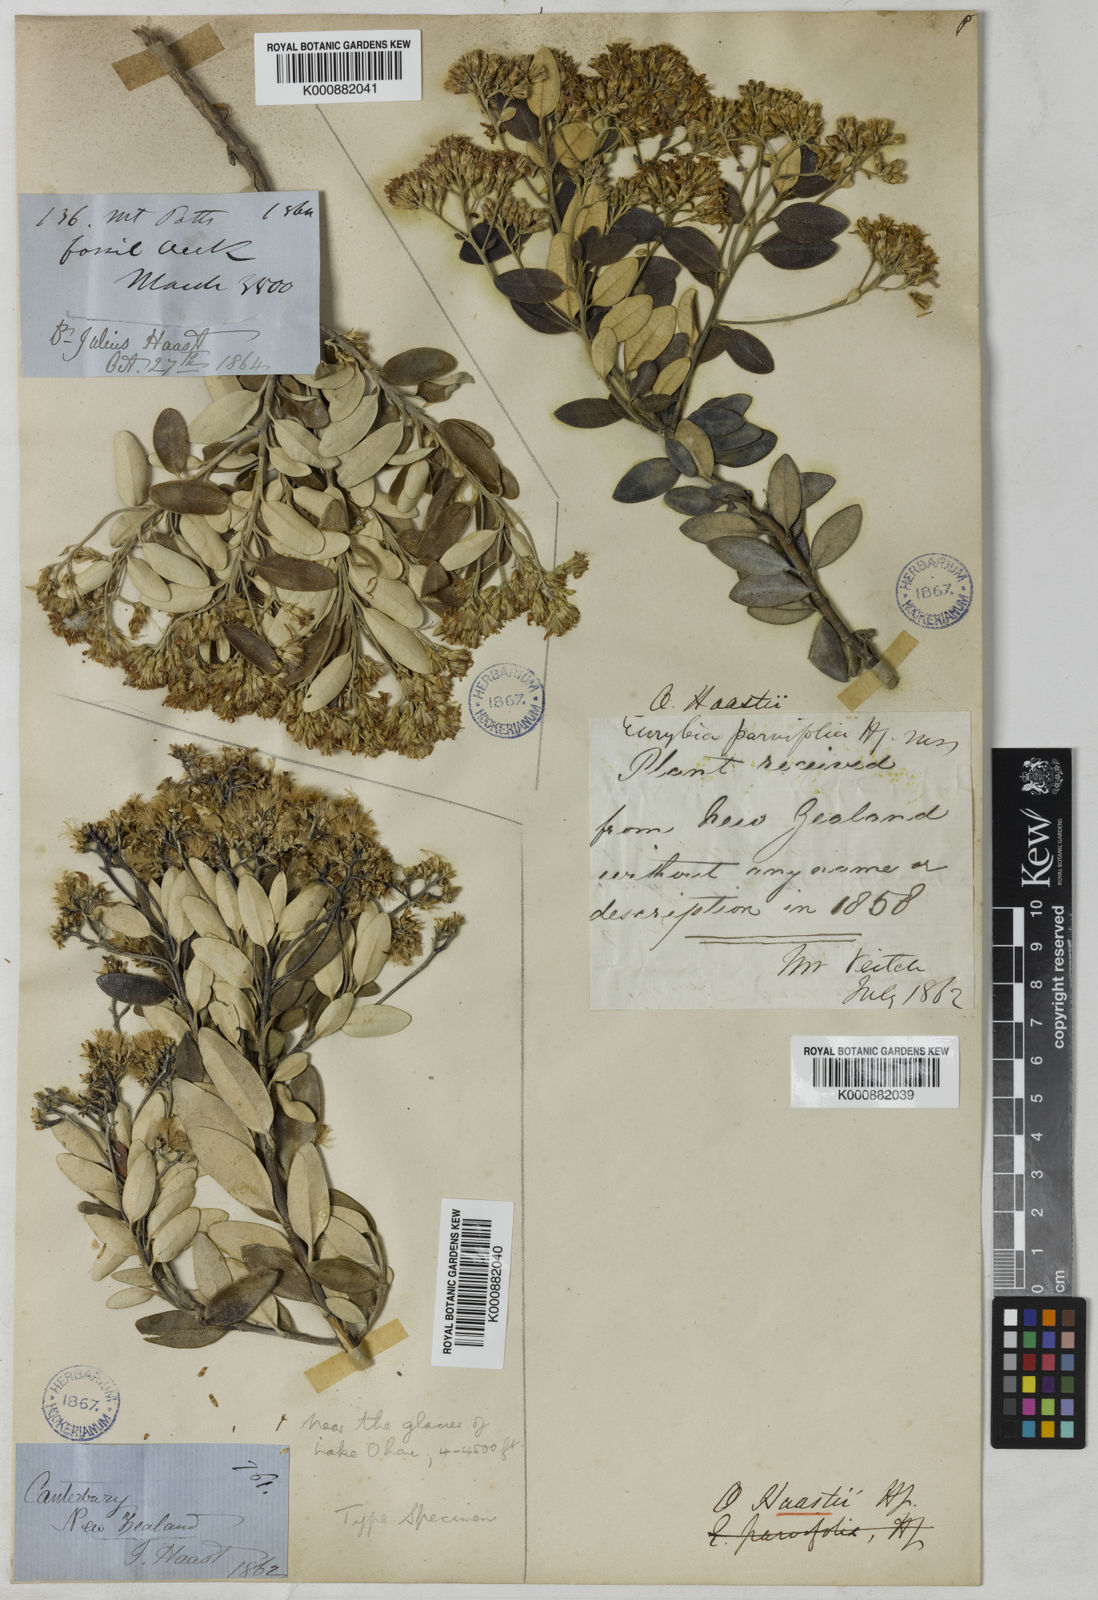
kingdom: Plantae
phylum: Tracheophyta
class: Magnoliopsida
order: Asterales
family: Asteraceae
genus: Olearia
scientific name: Olearia haastii
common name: Daisybush
